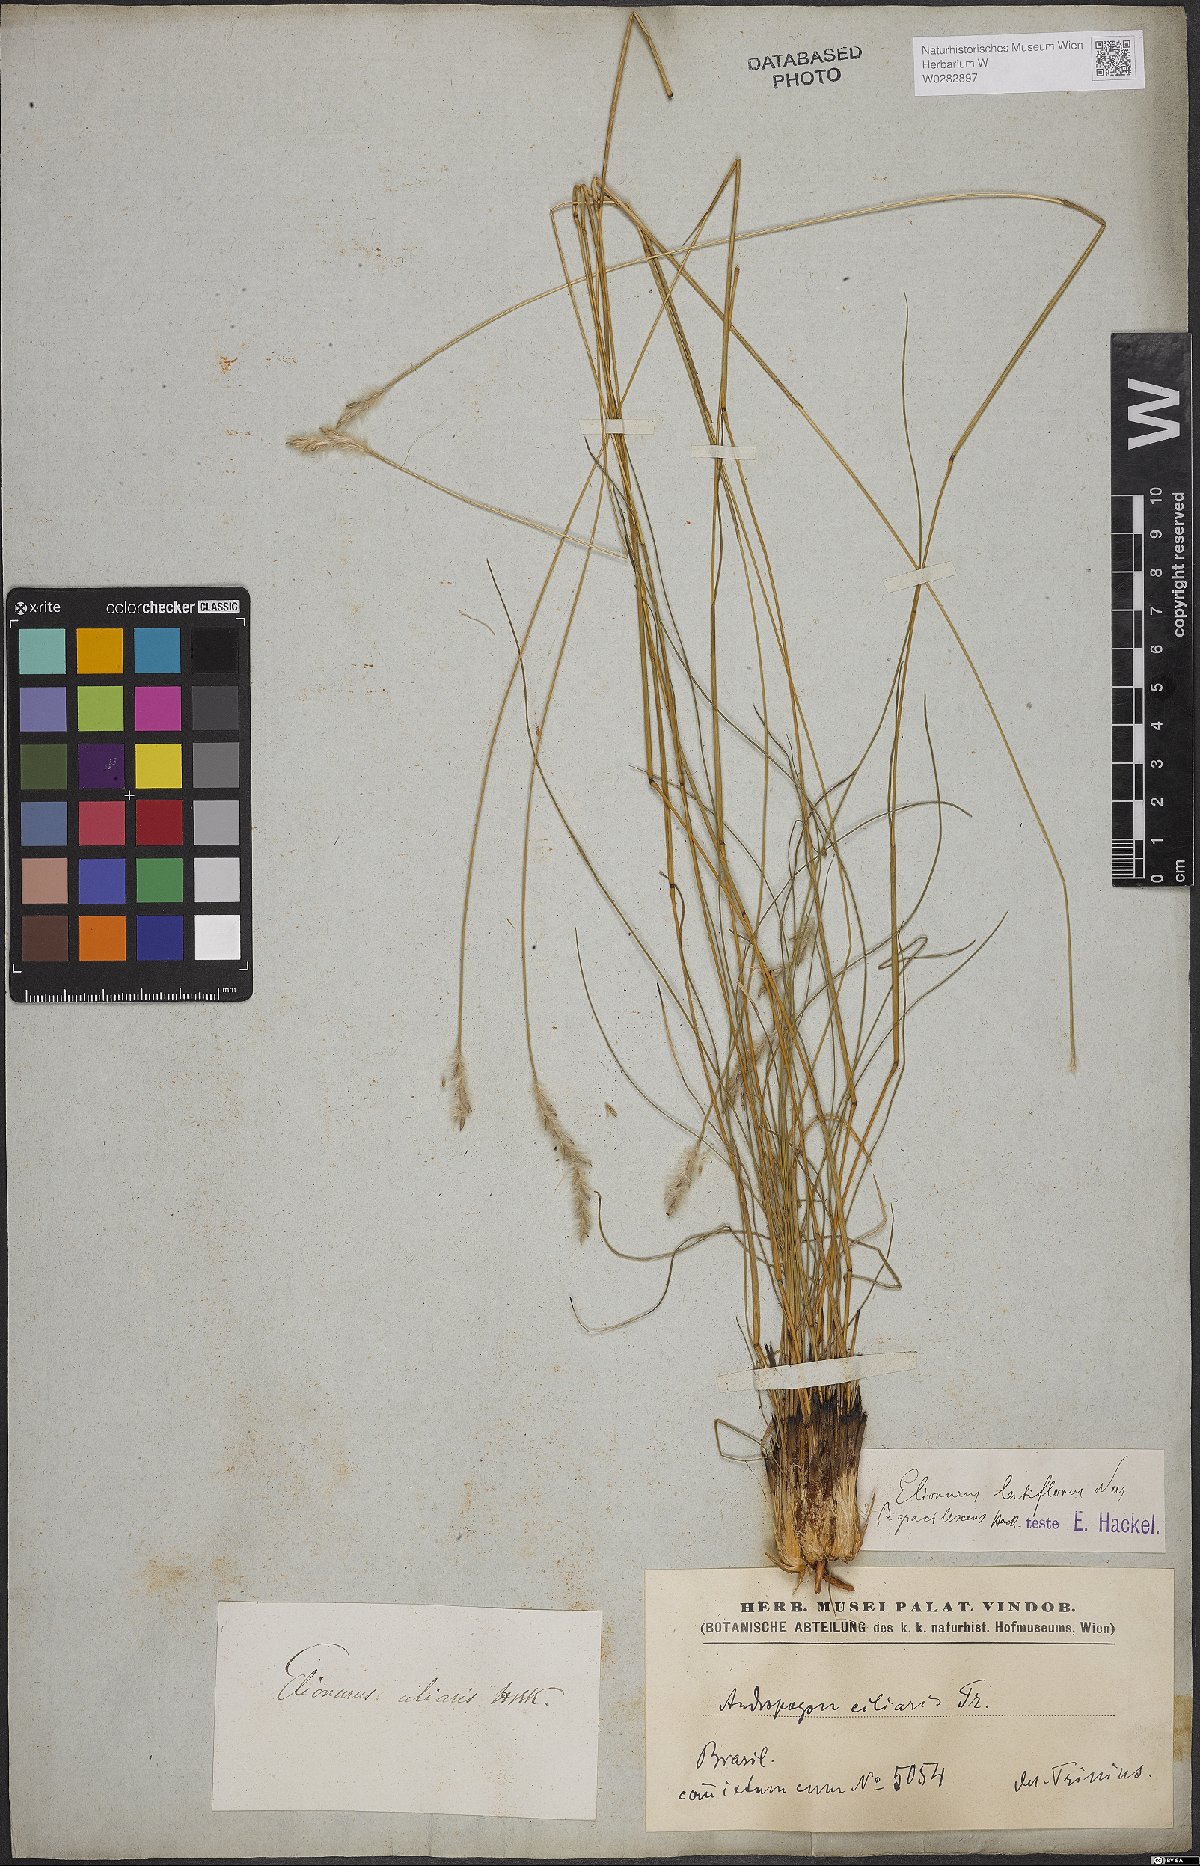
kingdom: Plantae
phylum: Tracheophyta
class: Liliopsida
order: Poales
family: Poaceae
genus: Elionurus
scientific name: Elionurus muticus
